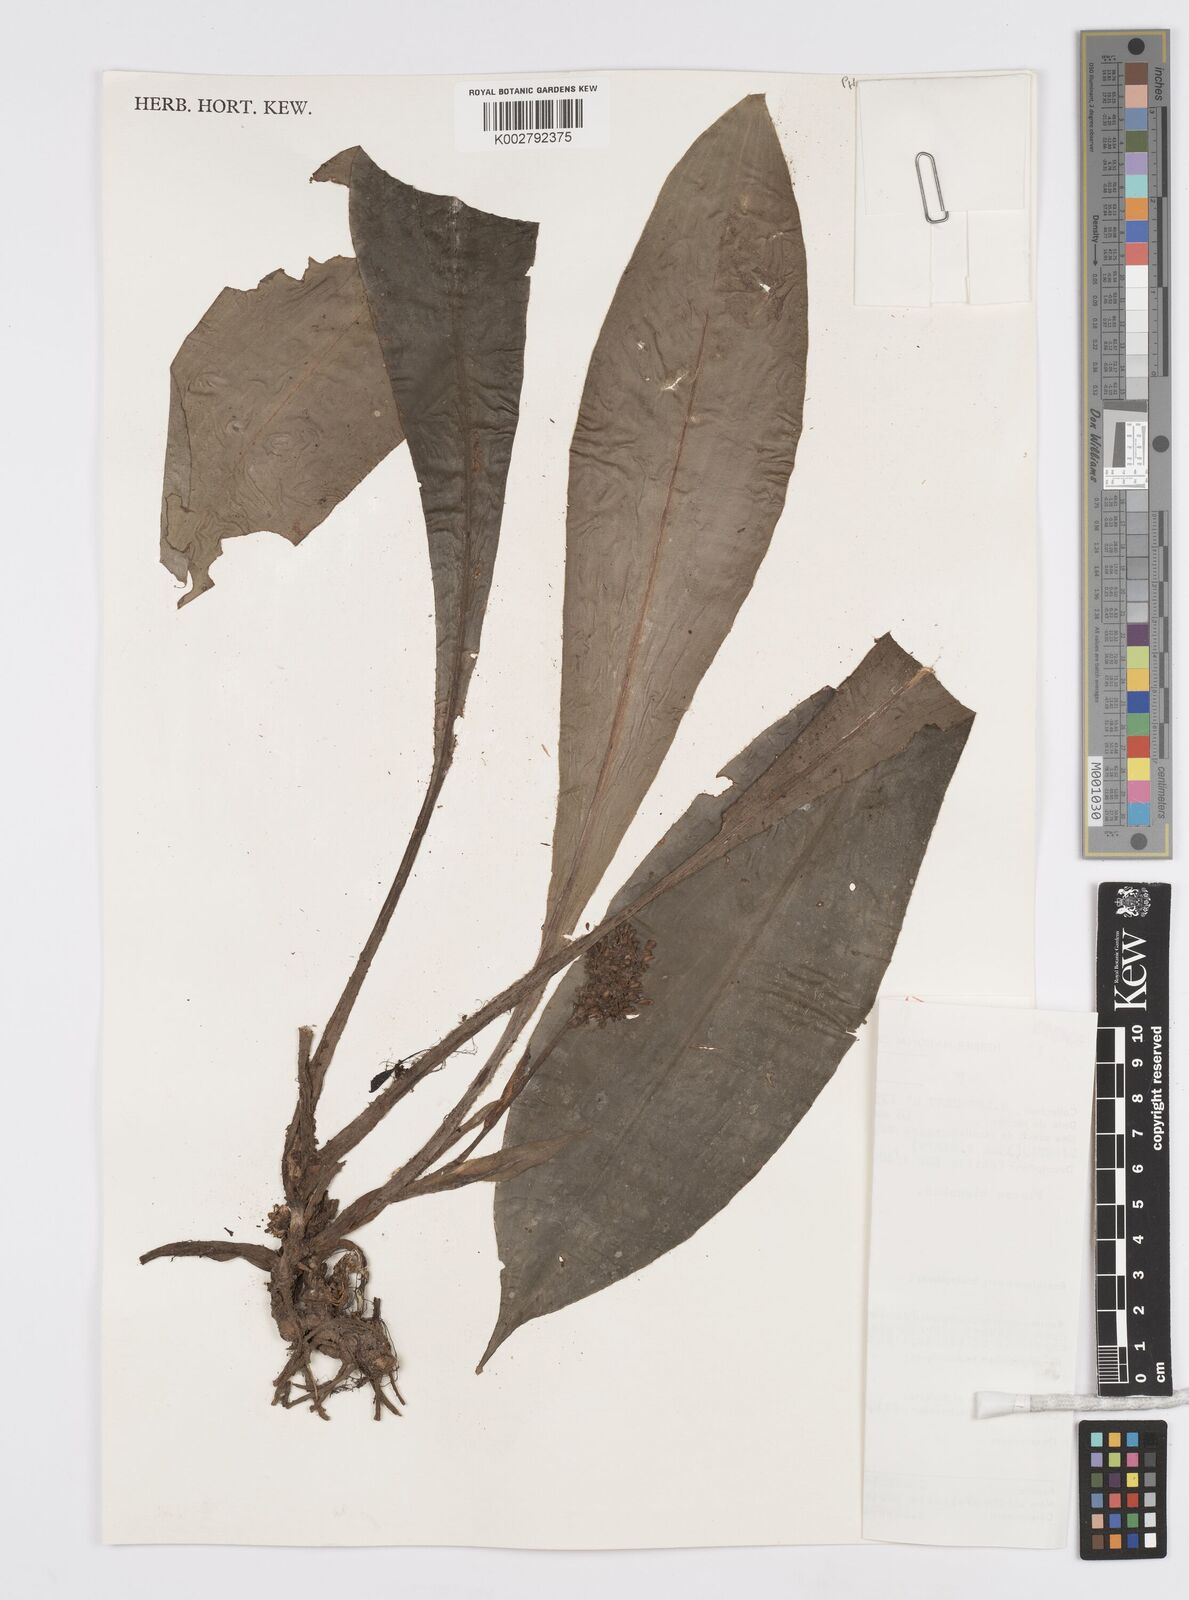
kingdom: Plantae
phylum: Tracheophyta
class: Liliopsida
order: Commelinales
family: Commelinaceae
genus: Palisota
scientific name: Palisota barteri
